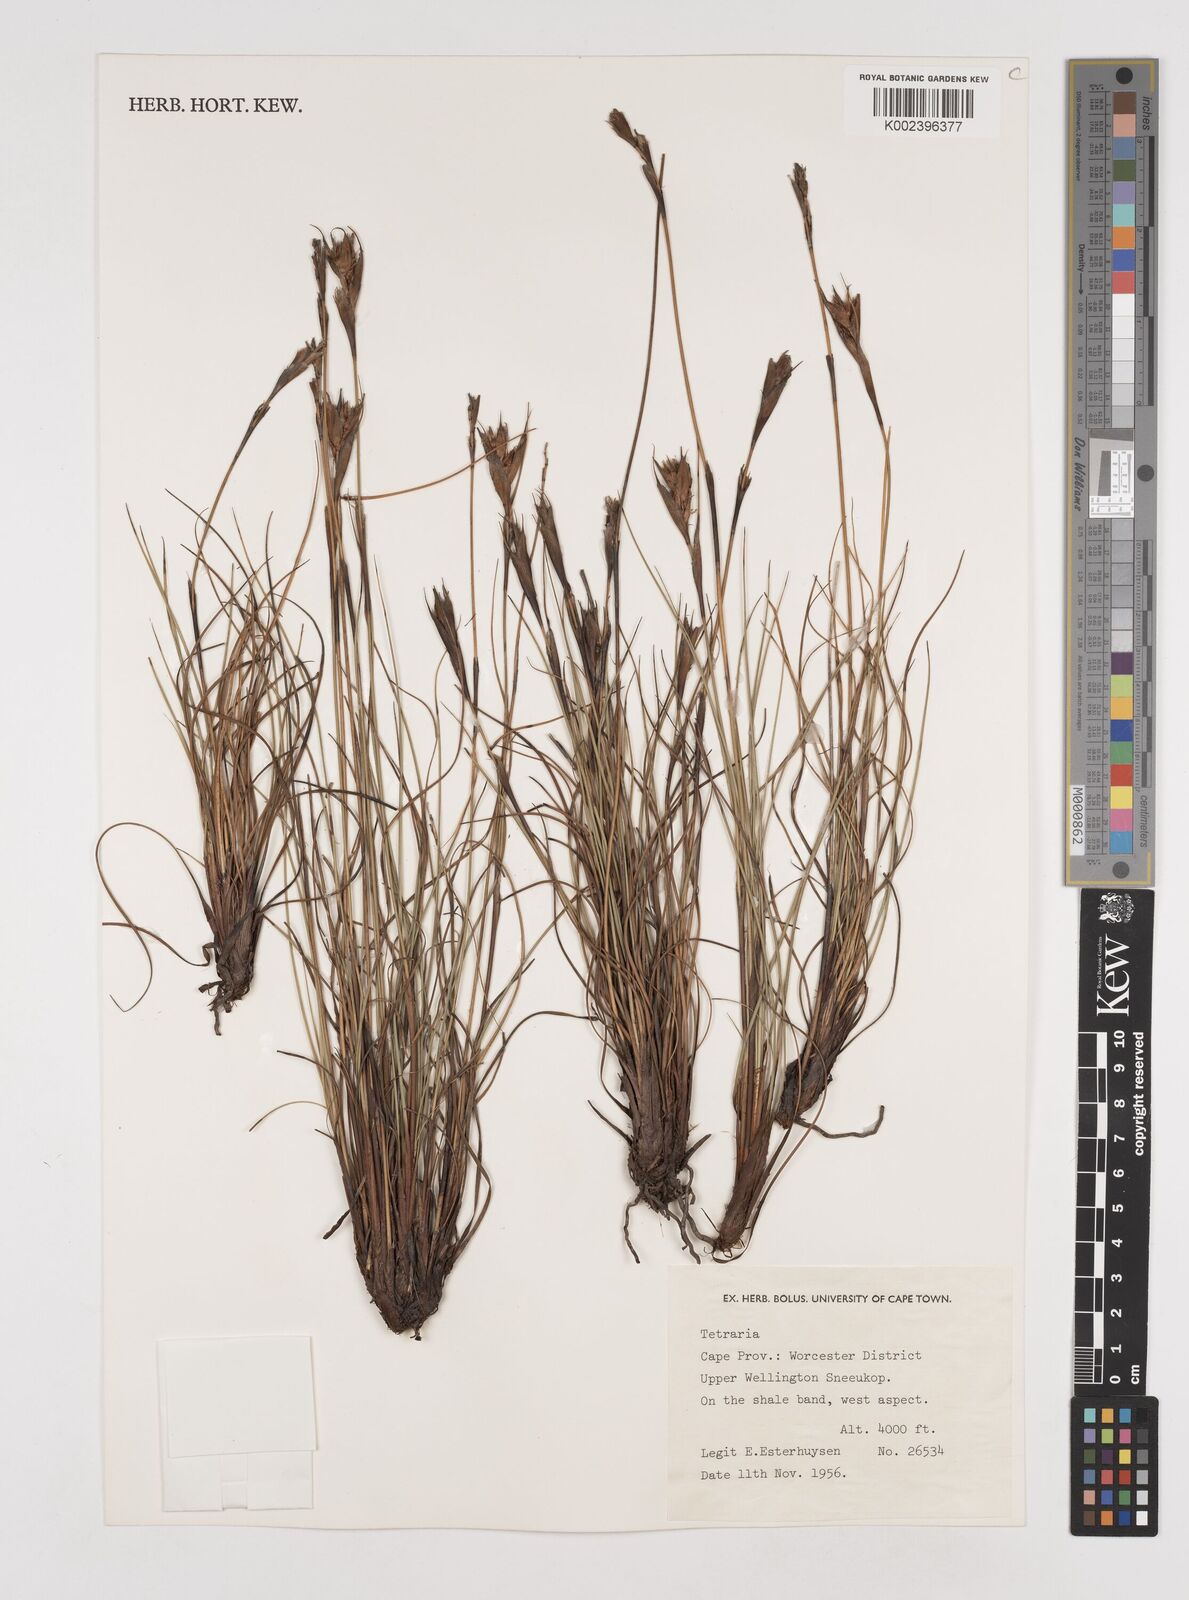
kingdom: Plantae
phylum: Tracheophyta
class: Liliopsida
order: Poales
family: Cyperaceae
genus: Tetraria
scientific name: Tetraria wallichiana
